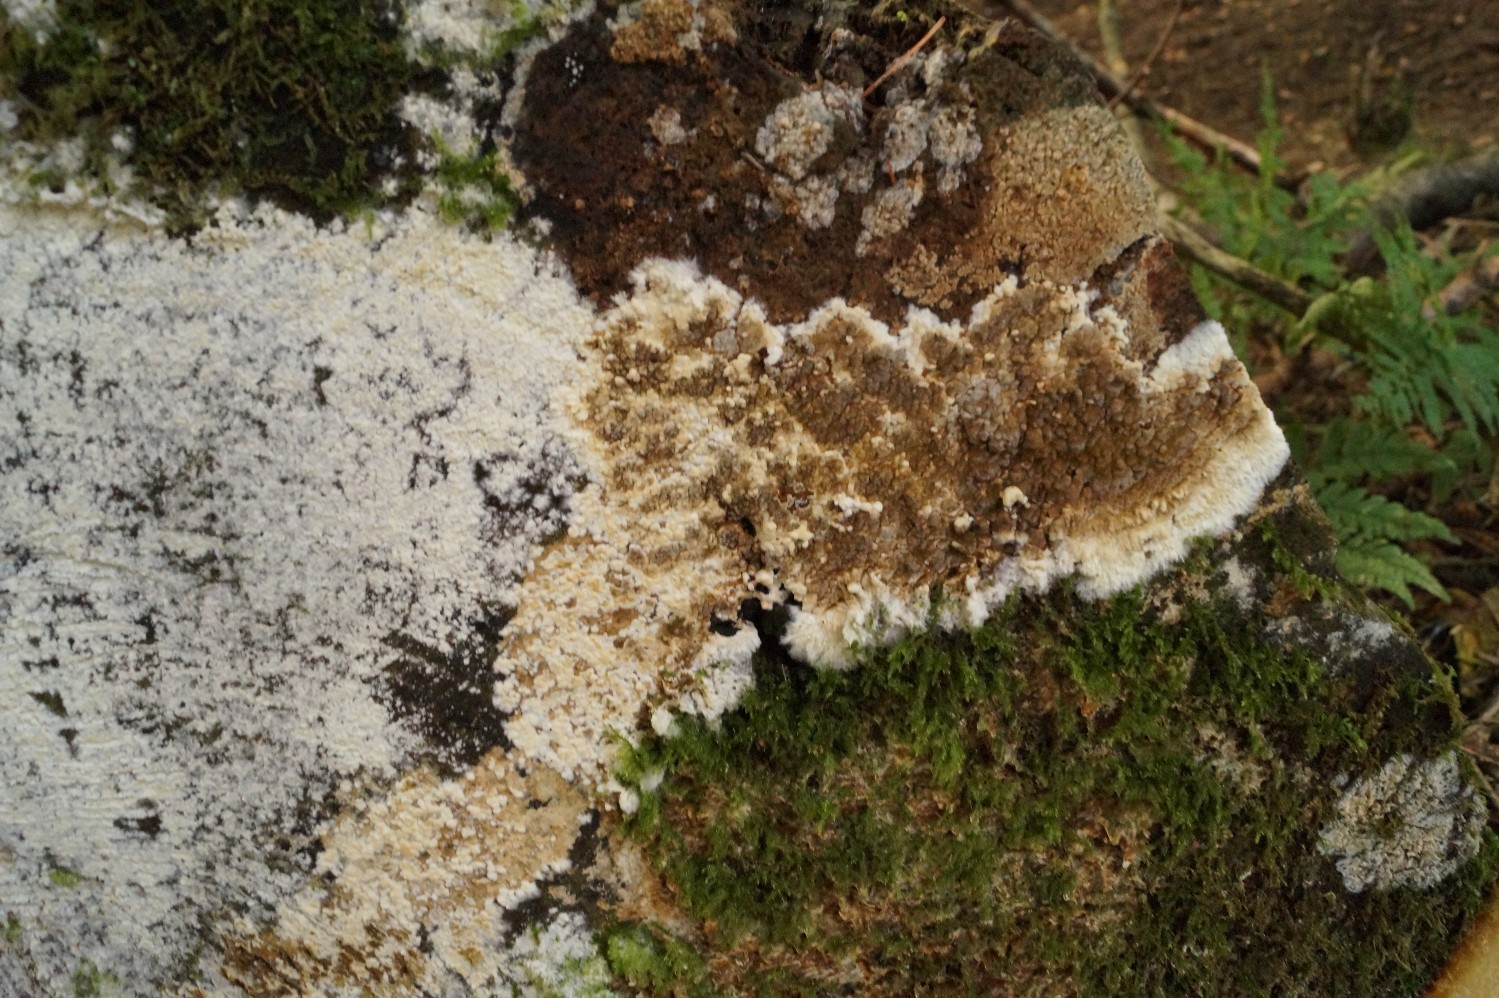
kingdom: Fungi
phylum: Basidiomycota
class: Agaricomycetes
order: Boletales
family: Coniophoraceae
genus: Coniophora
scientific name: Coniophora puteana
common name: gul tømmersvamp
